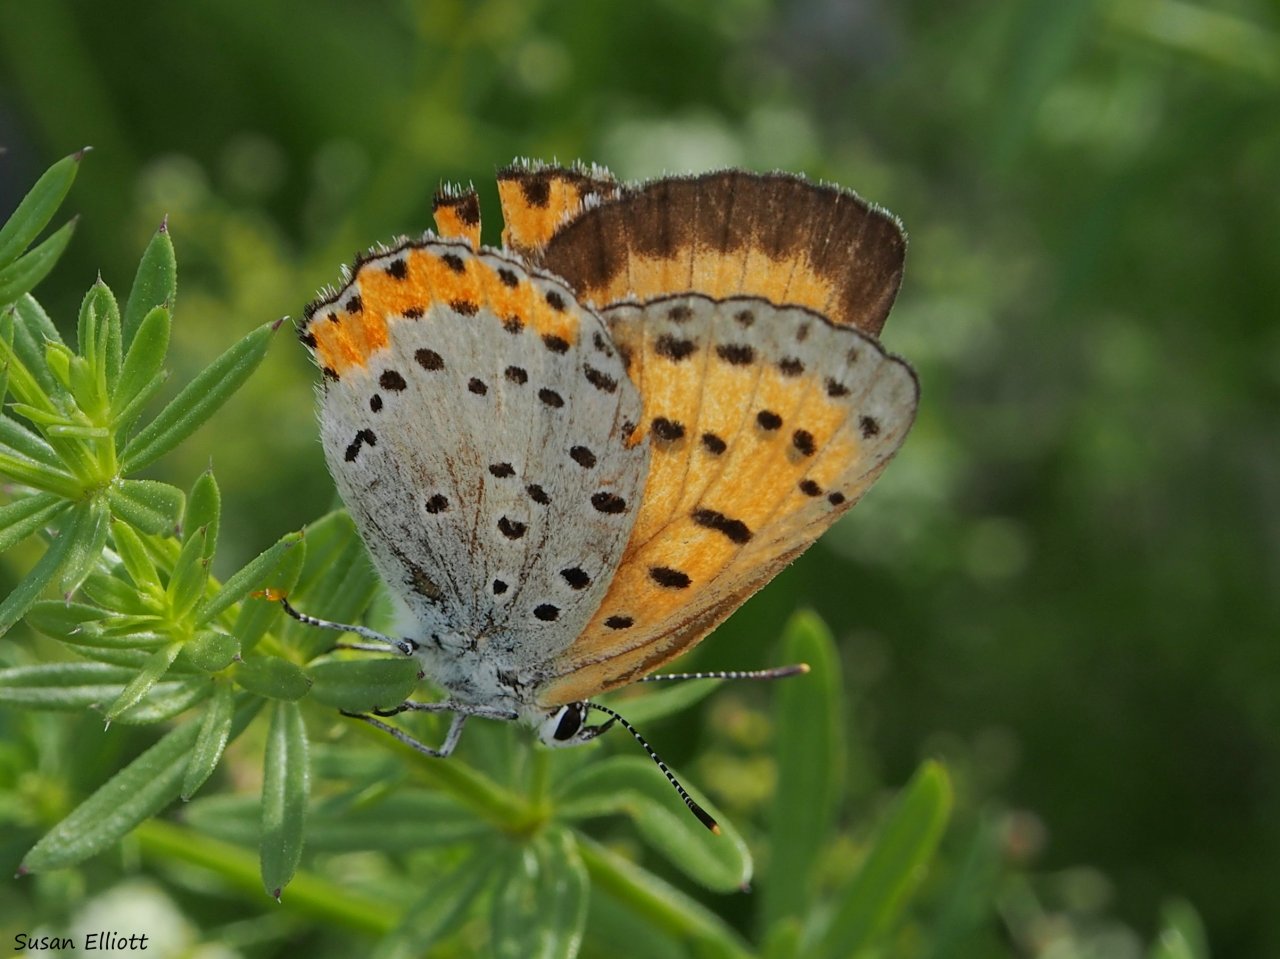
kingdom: Animalia
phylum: Arthropoda
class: Insecta
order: Lepidoptera
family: Sesiidae
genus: Sesia
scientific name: Sesia Lycaena hyllus
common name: Bronze Copper
